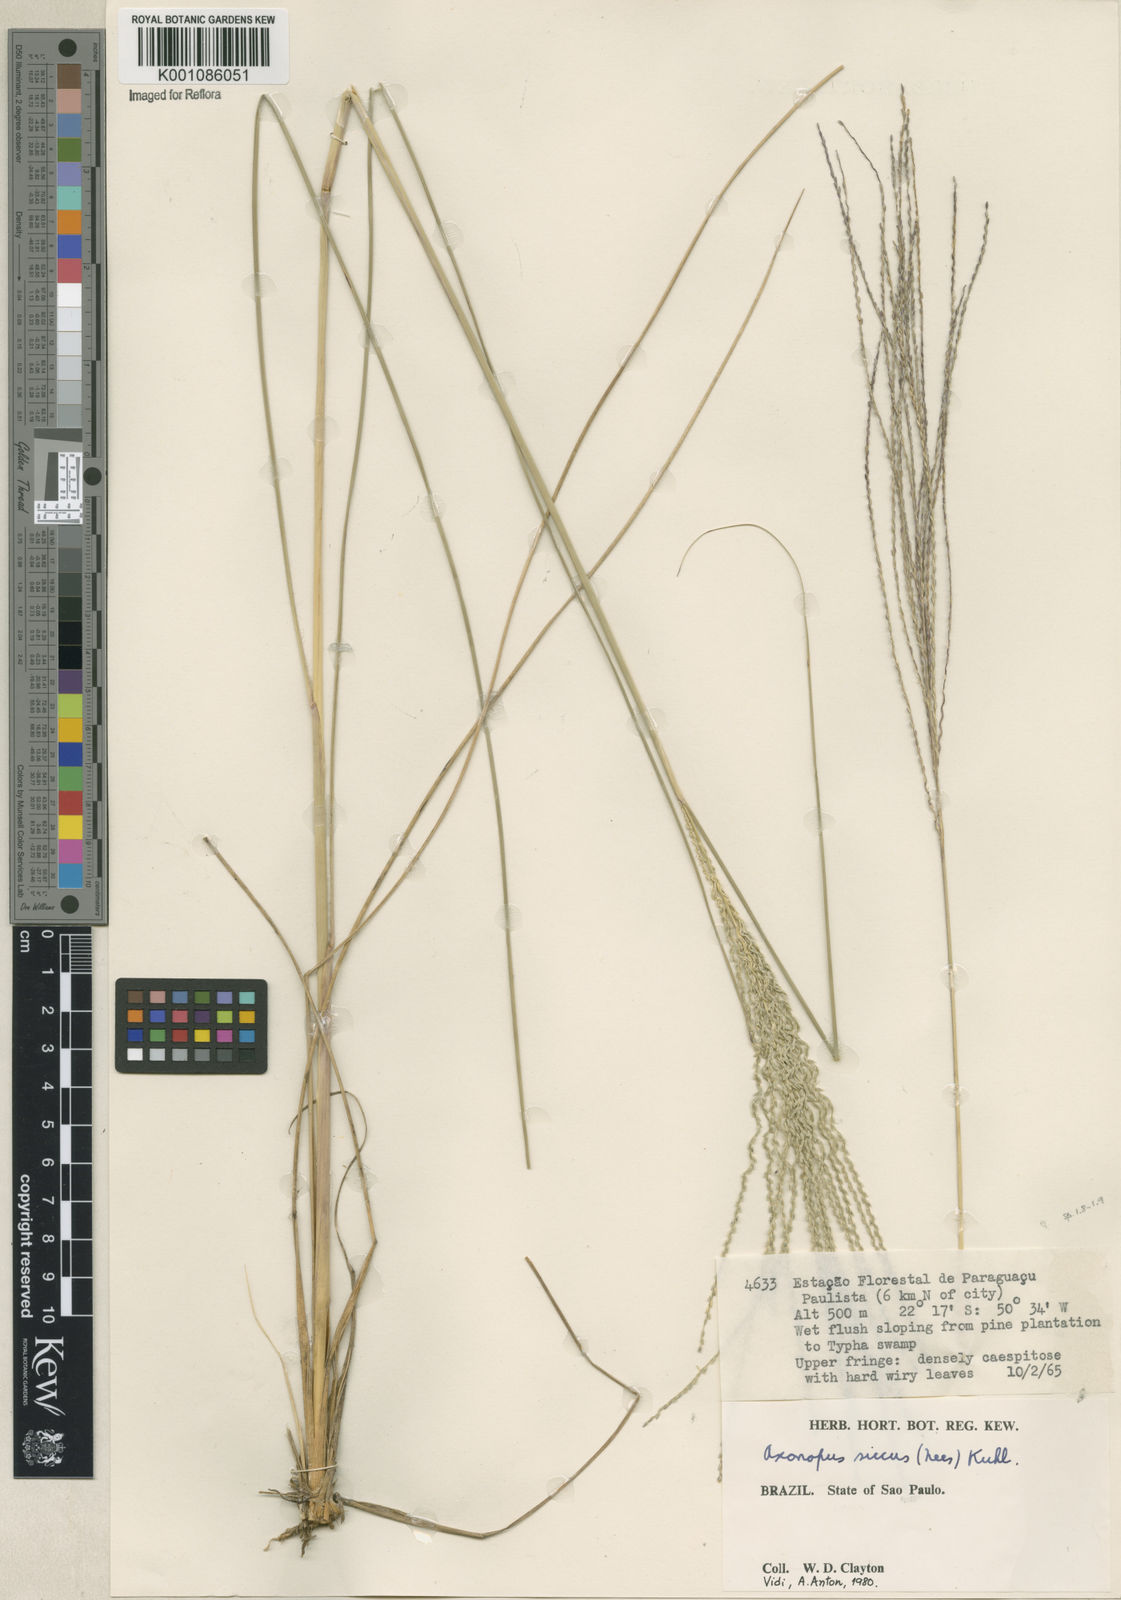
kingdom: Plantae
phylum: Tracheophyta
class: Liliopsida
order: Poales
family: Poaceae
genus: Axonopus
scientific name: Axonopus siccus
